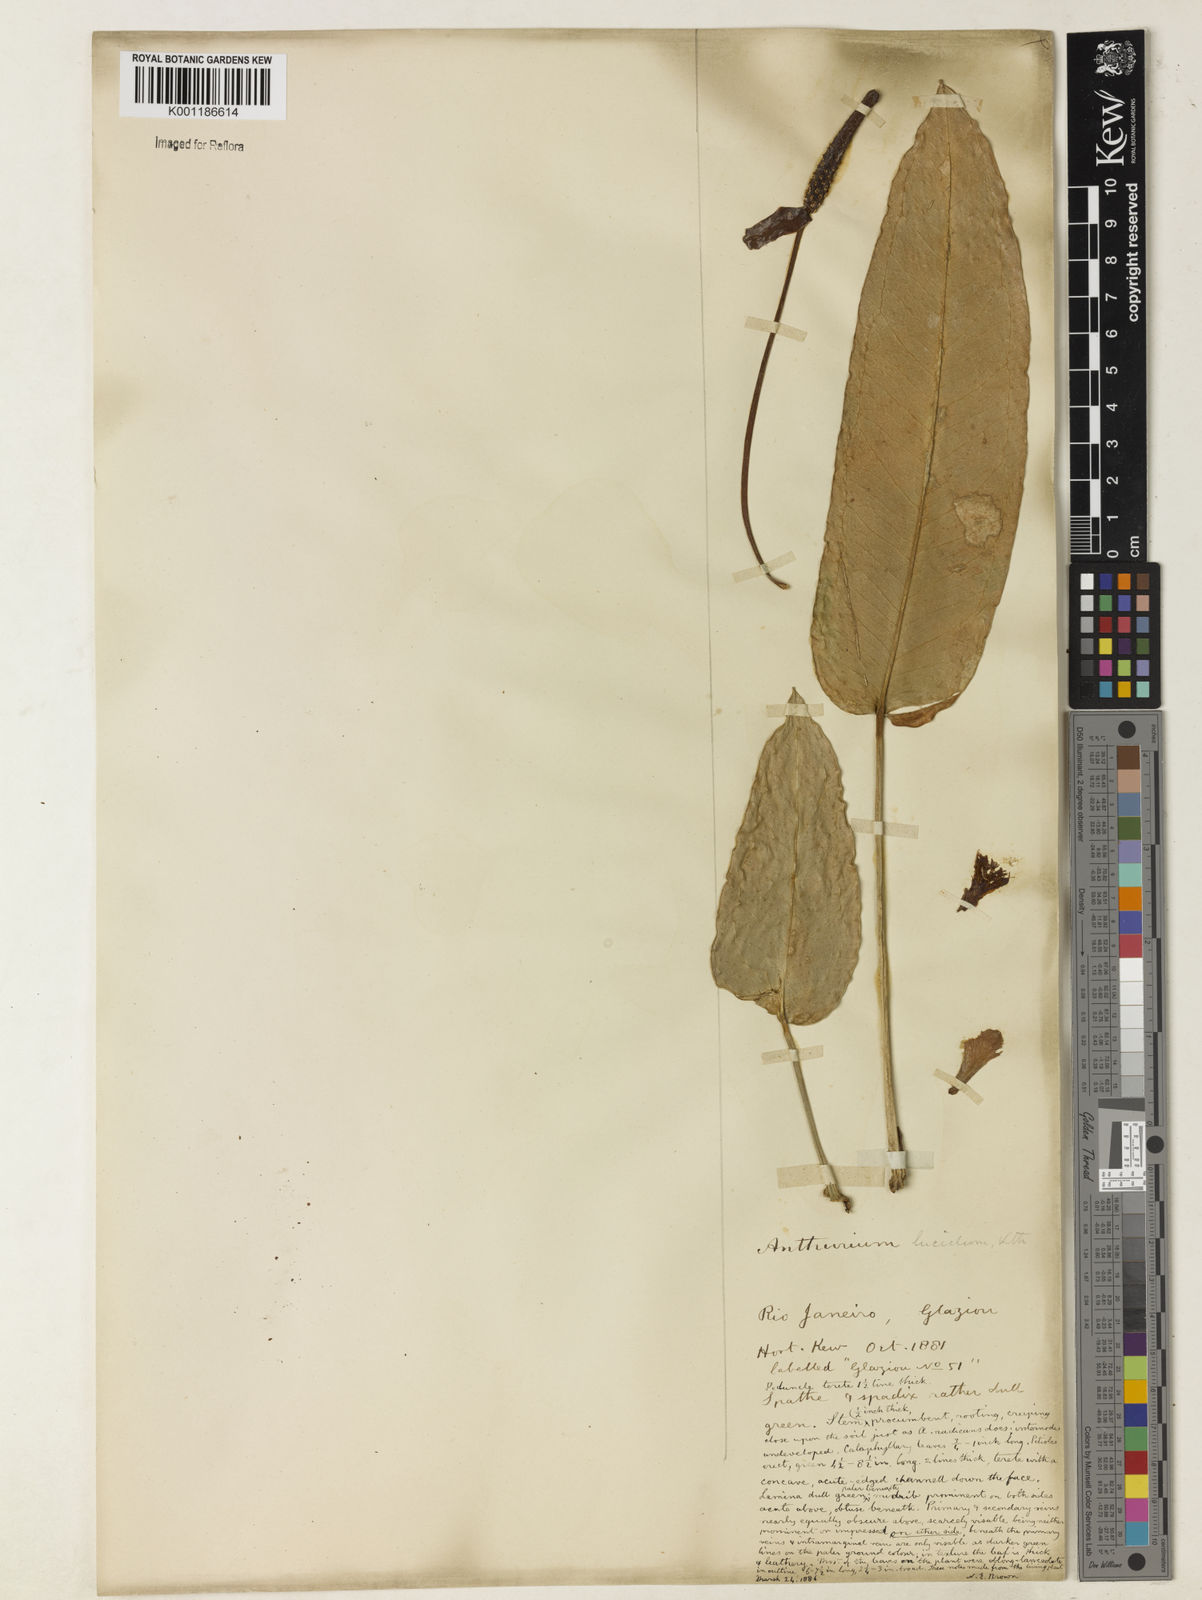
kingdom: Plantae
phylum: Tracheophyta
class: Liliopsida
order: Alismatales
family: Araceae
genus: Anthurium
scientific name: Anthurium lucidum
